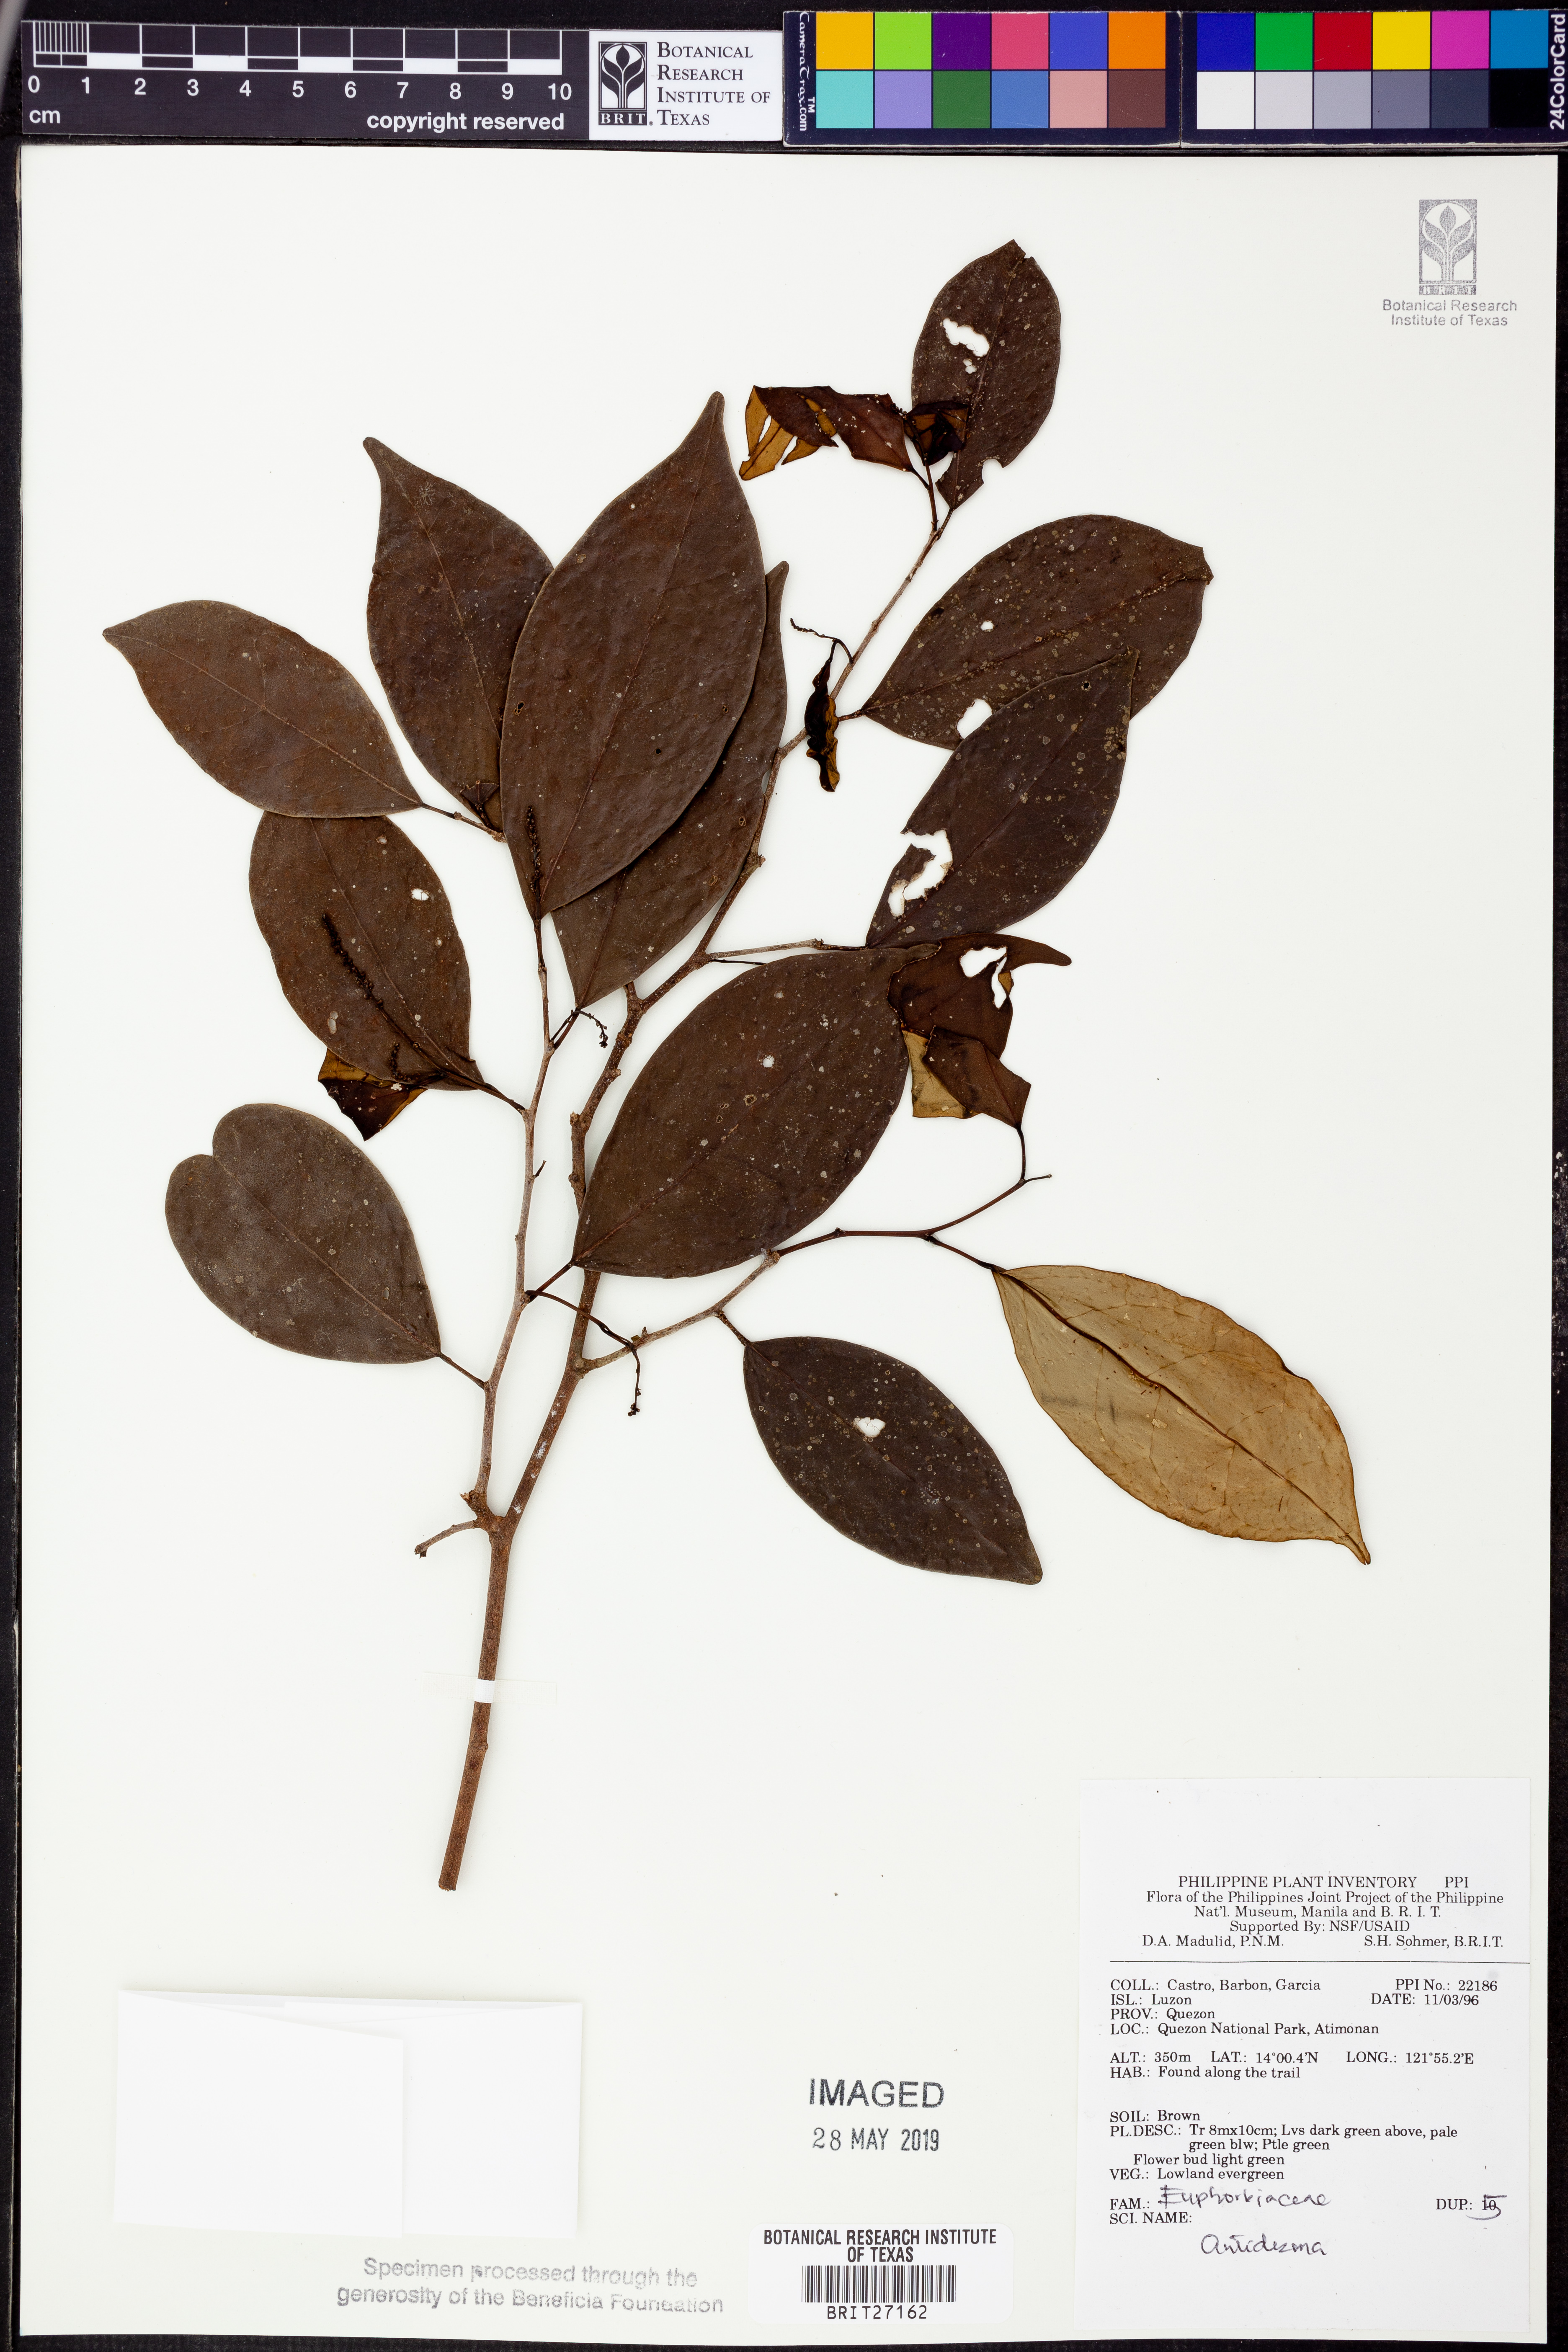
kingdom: Plantae
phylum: Tracheophyta
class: Magnoliopsida
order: Malpighiales
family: Phyllanthaceae
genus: Antidesma
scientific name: Antidesma
